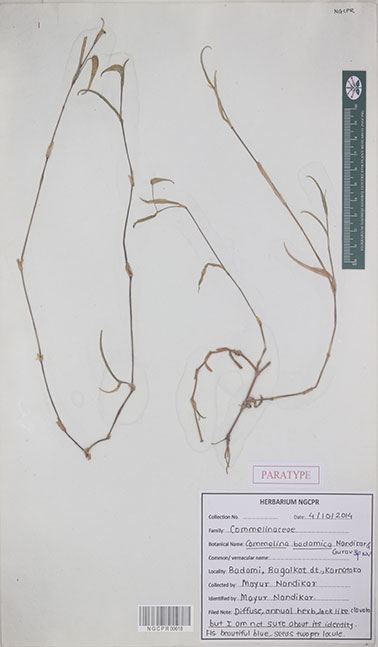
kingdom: Plantae
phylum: Tracheophyta
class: Liliopsida
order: Commelinales
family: Commelinaceae
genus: Commelina
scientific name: Commelina badamica
